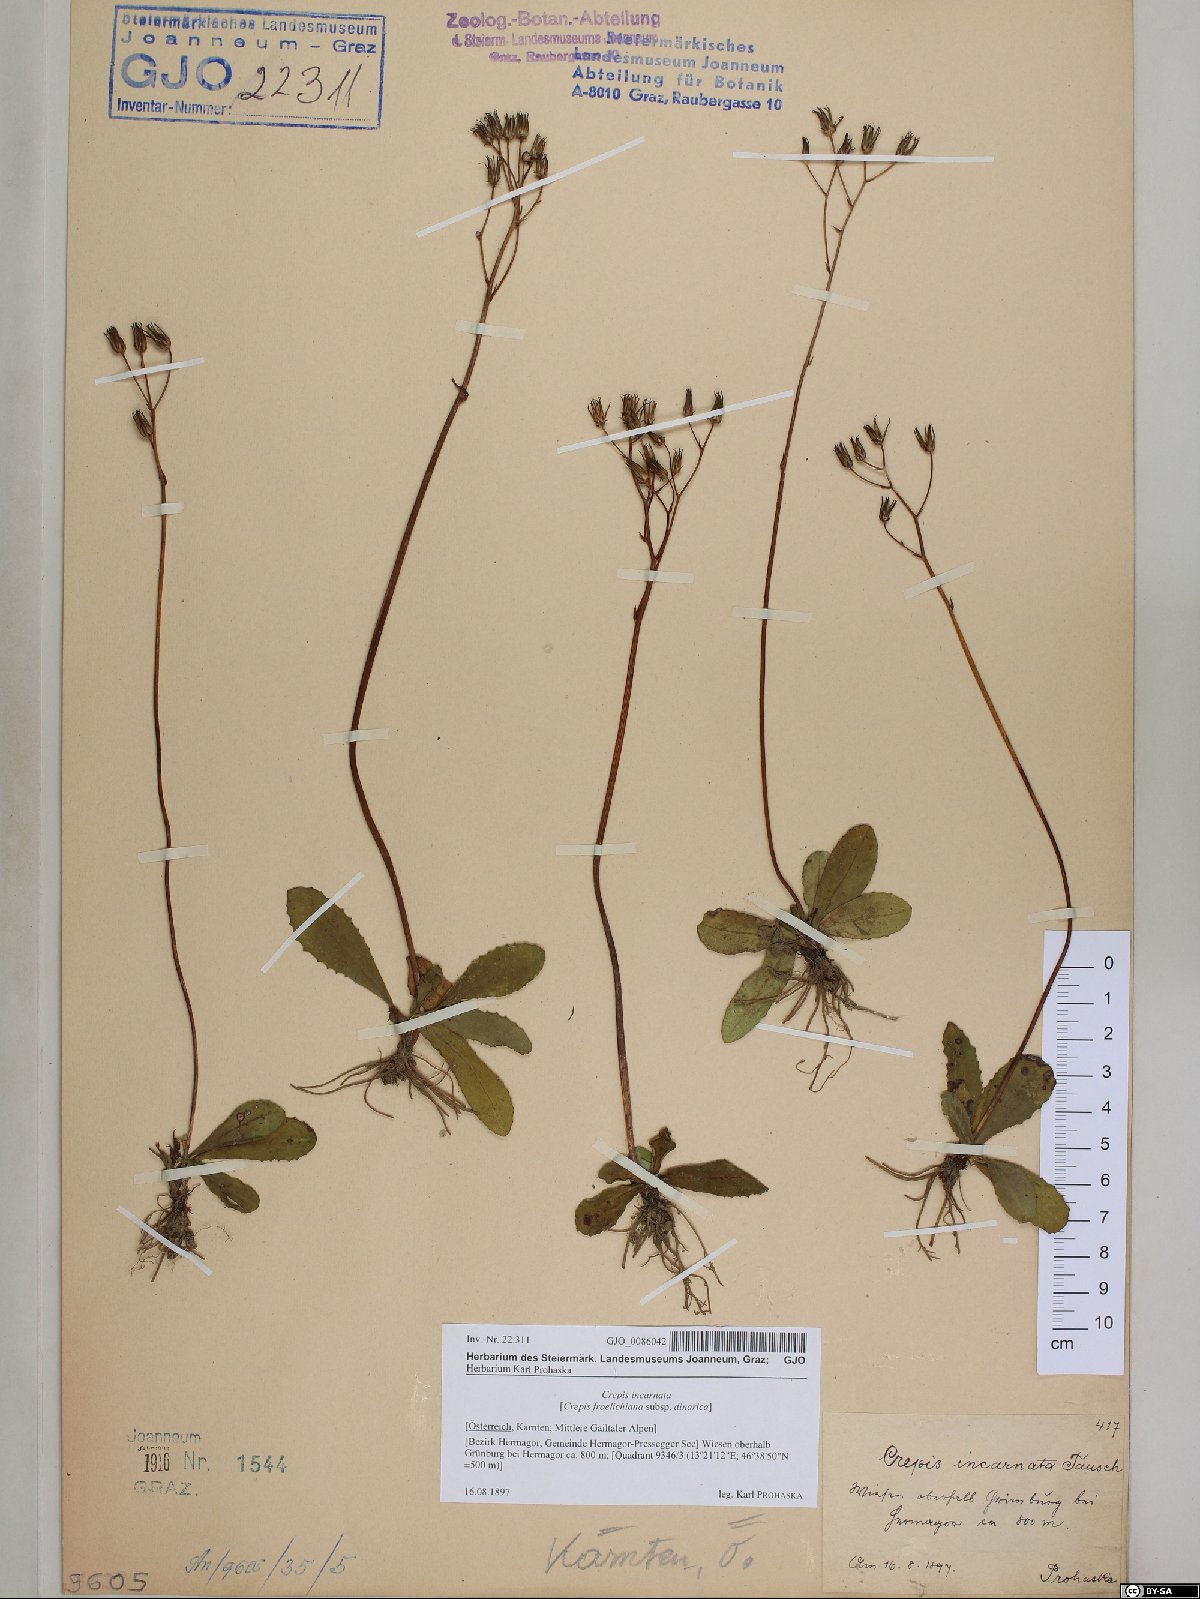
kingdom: Plantae
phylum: Tracheophyta
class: Magnoliopsida
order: Asterales
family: Asteraceae
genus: Crepis
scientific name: Crepis froelichiana
